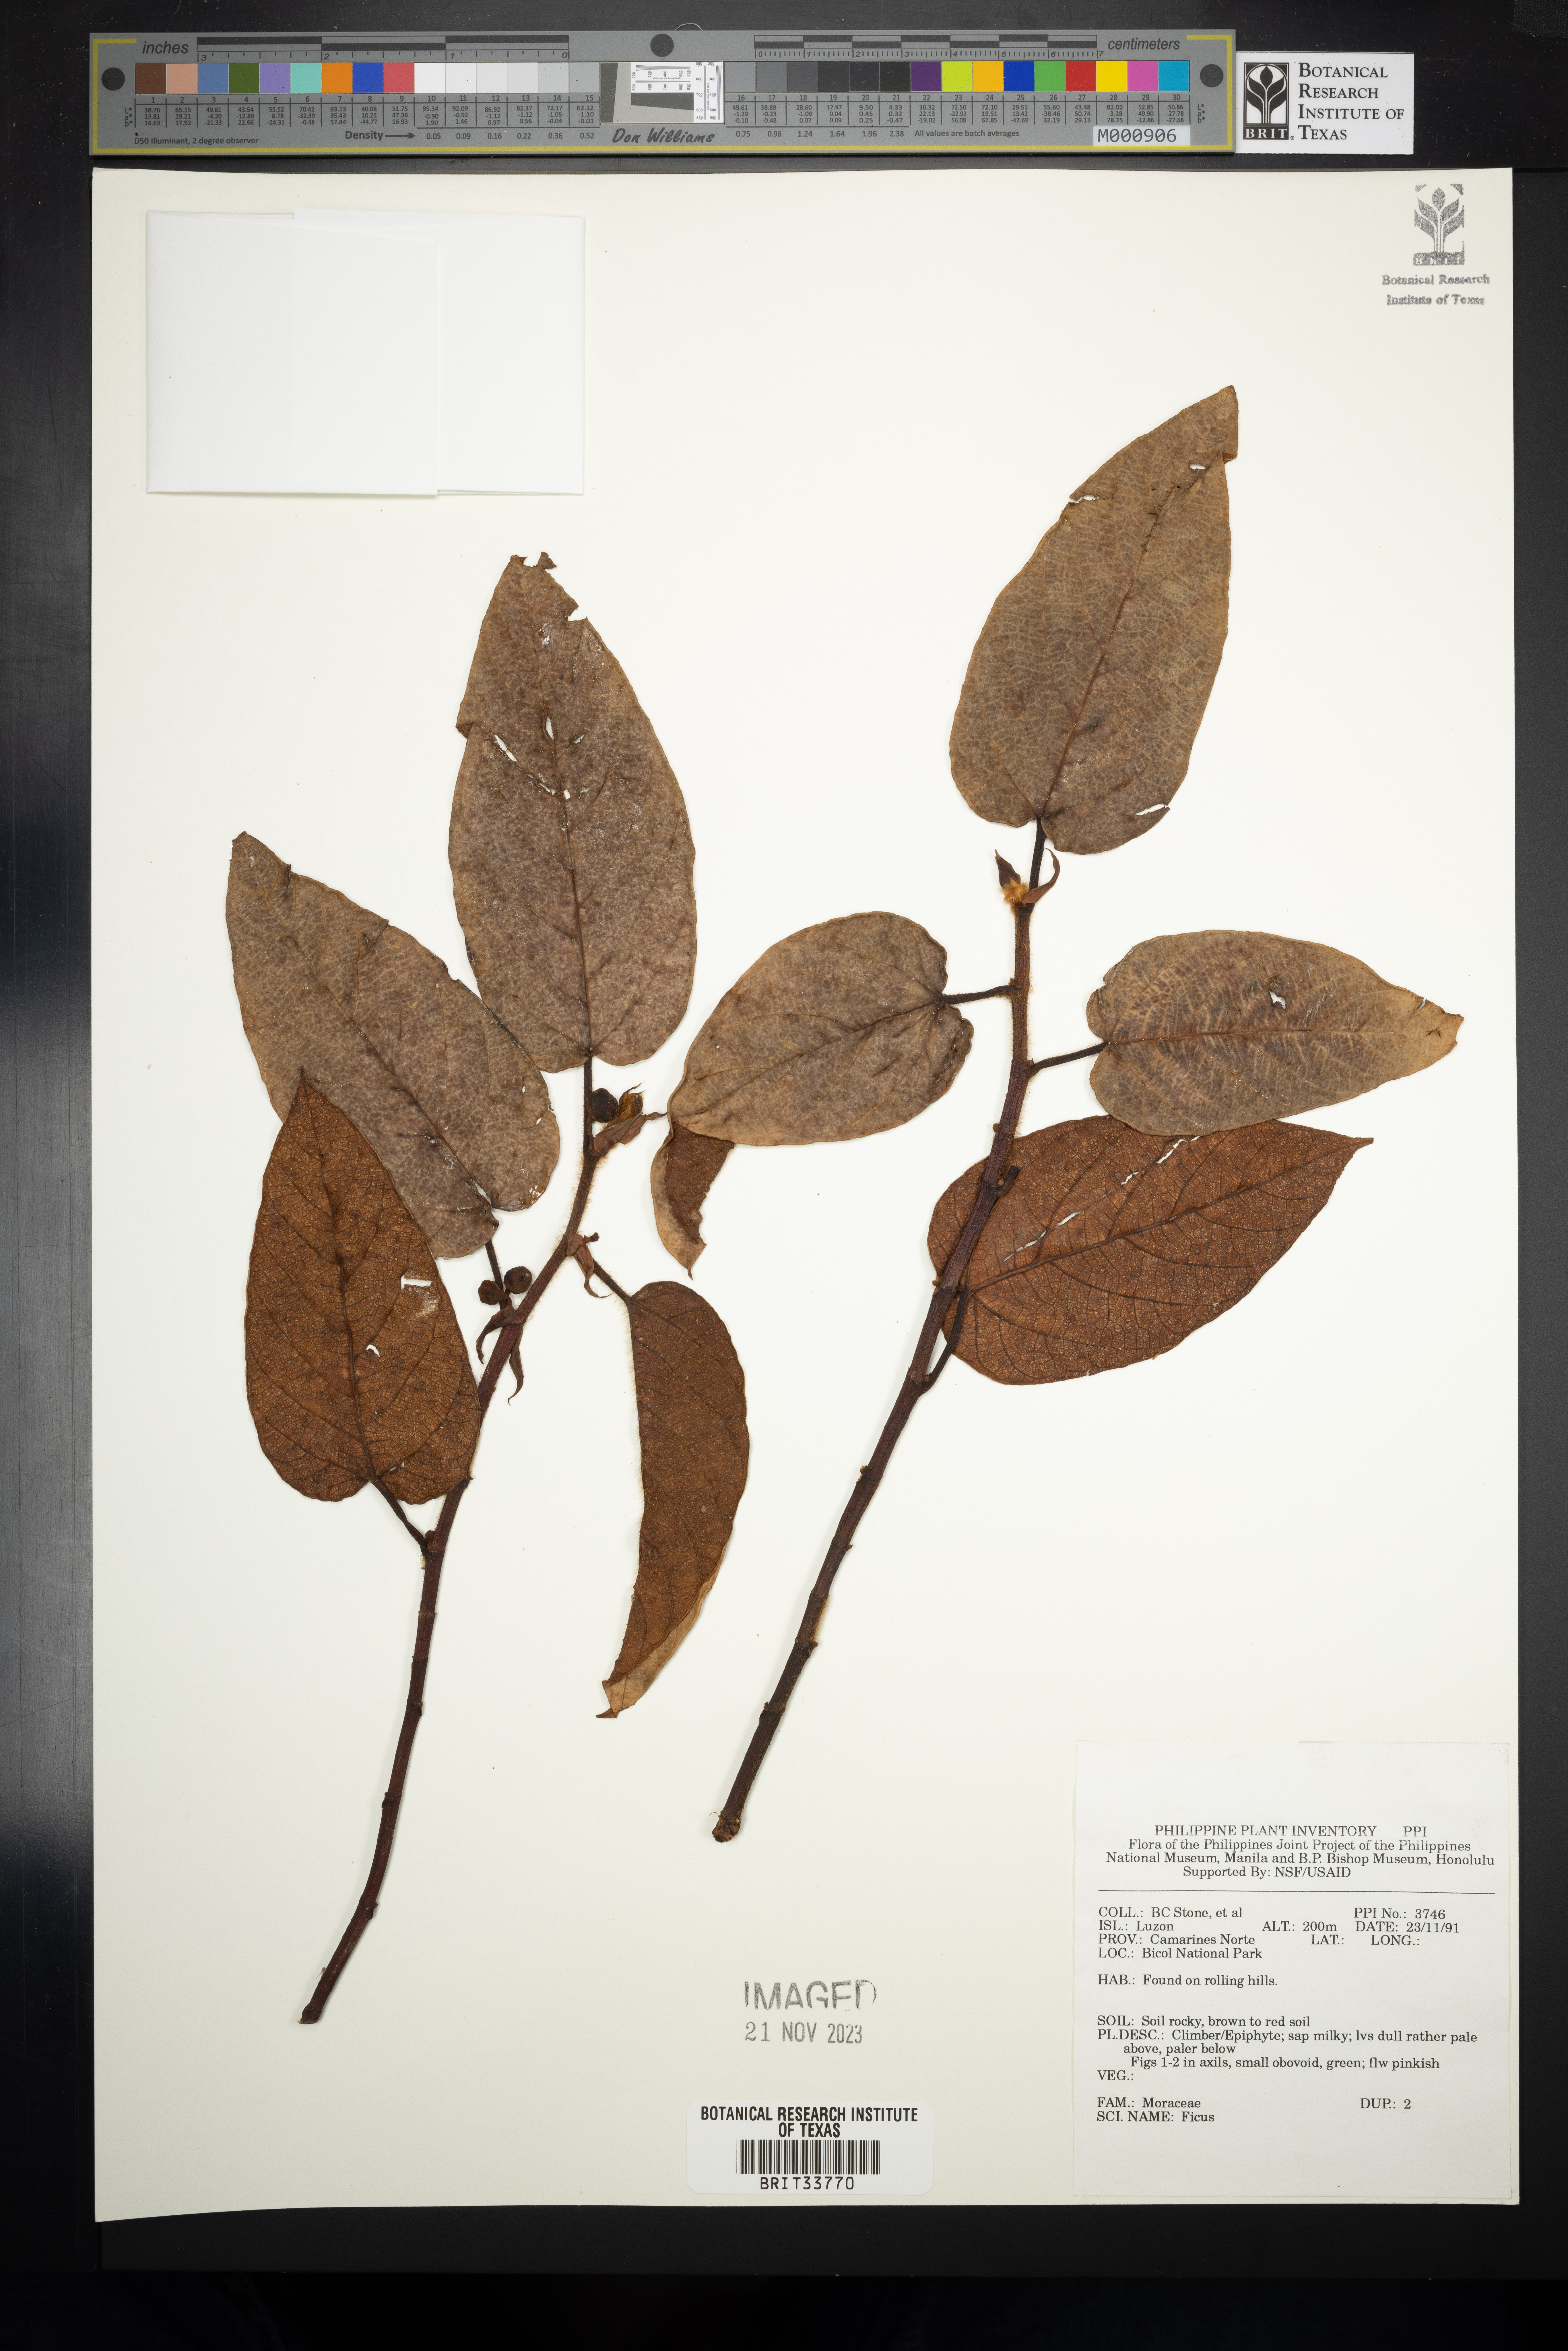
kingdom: Plantae
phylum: Tracheophyta
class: Magnoliopsida
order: Rosales
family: Moraceae
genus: Ficus
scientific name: Ficus
